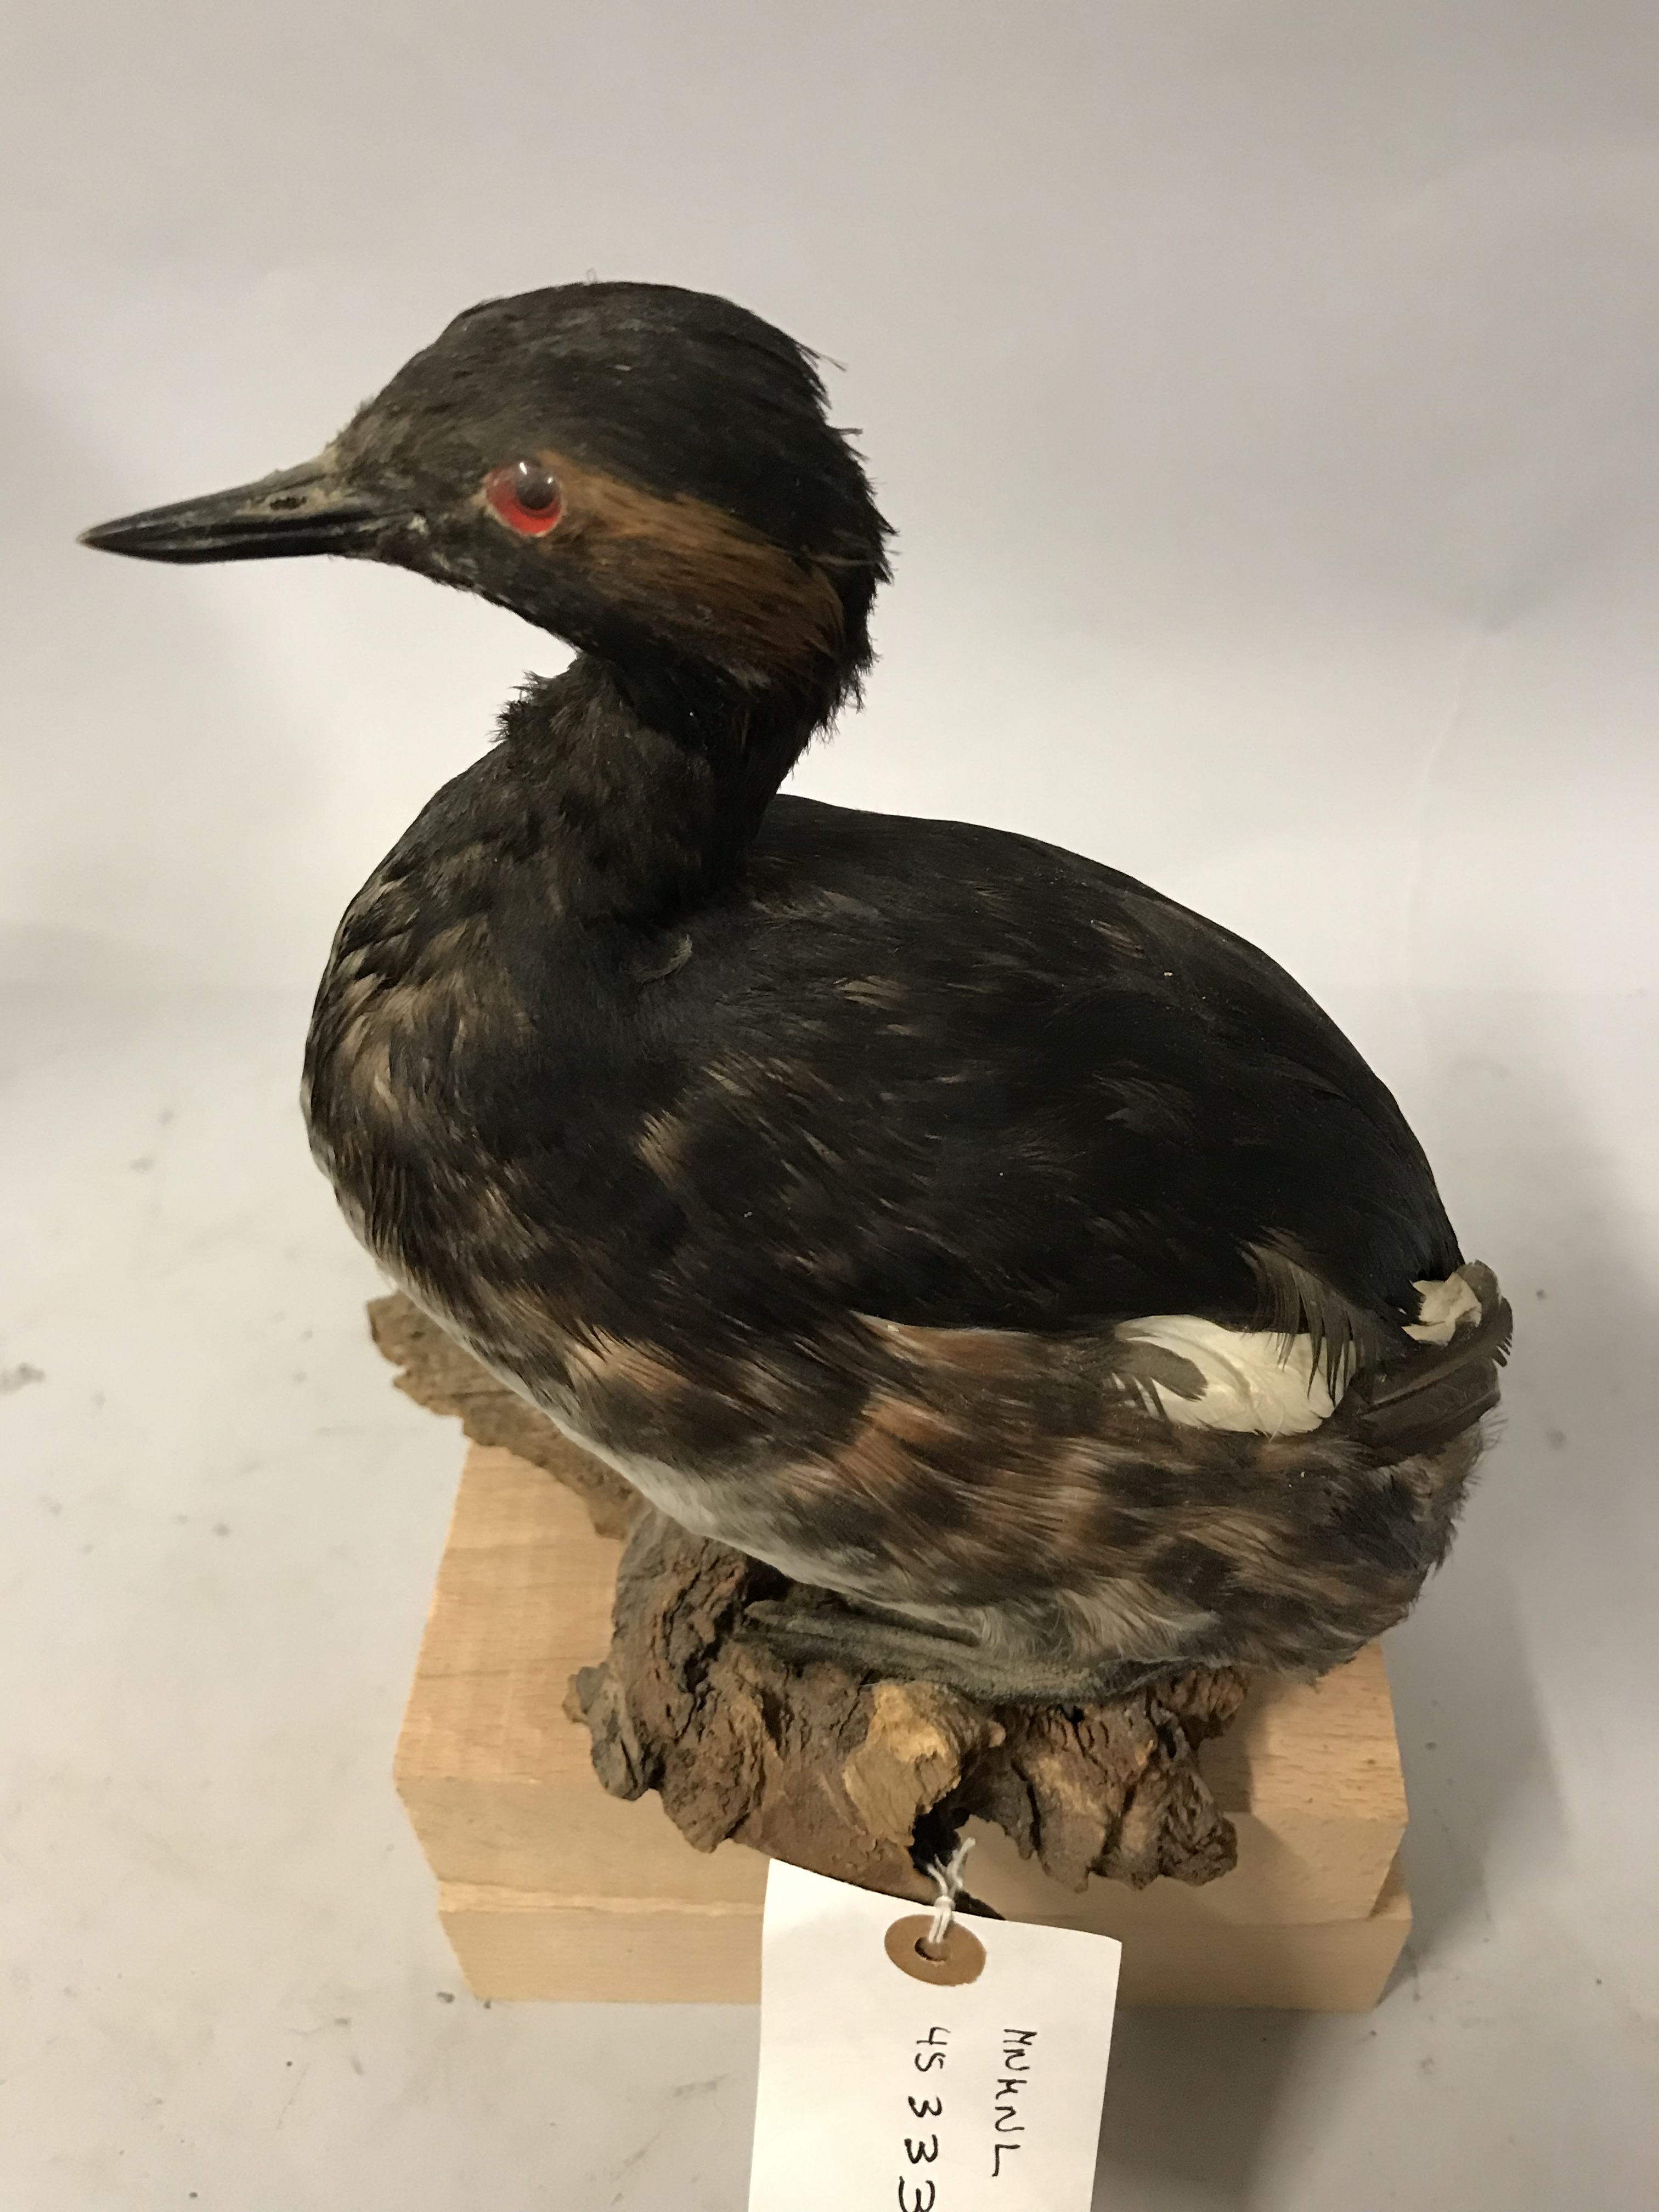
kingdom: Animalia
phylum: Chordata
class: Aves
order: Podicipediformes
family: Podicipedidae
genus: Podiceps
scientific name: Podiceps nigricollis
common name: Black-necked grebe
